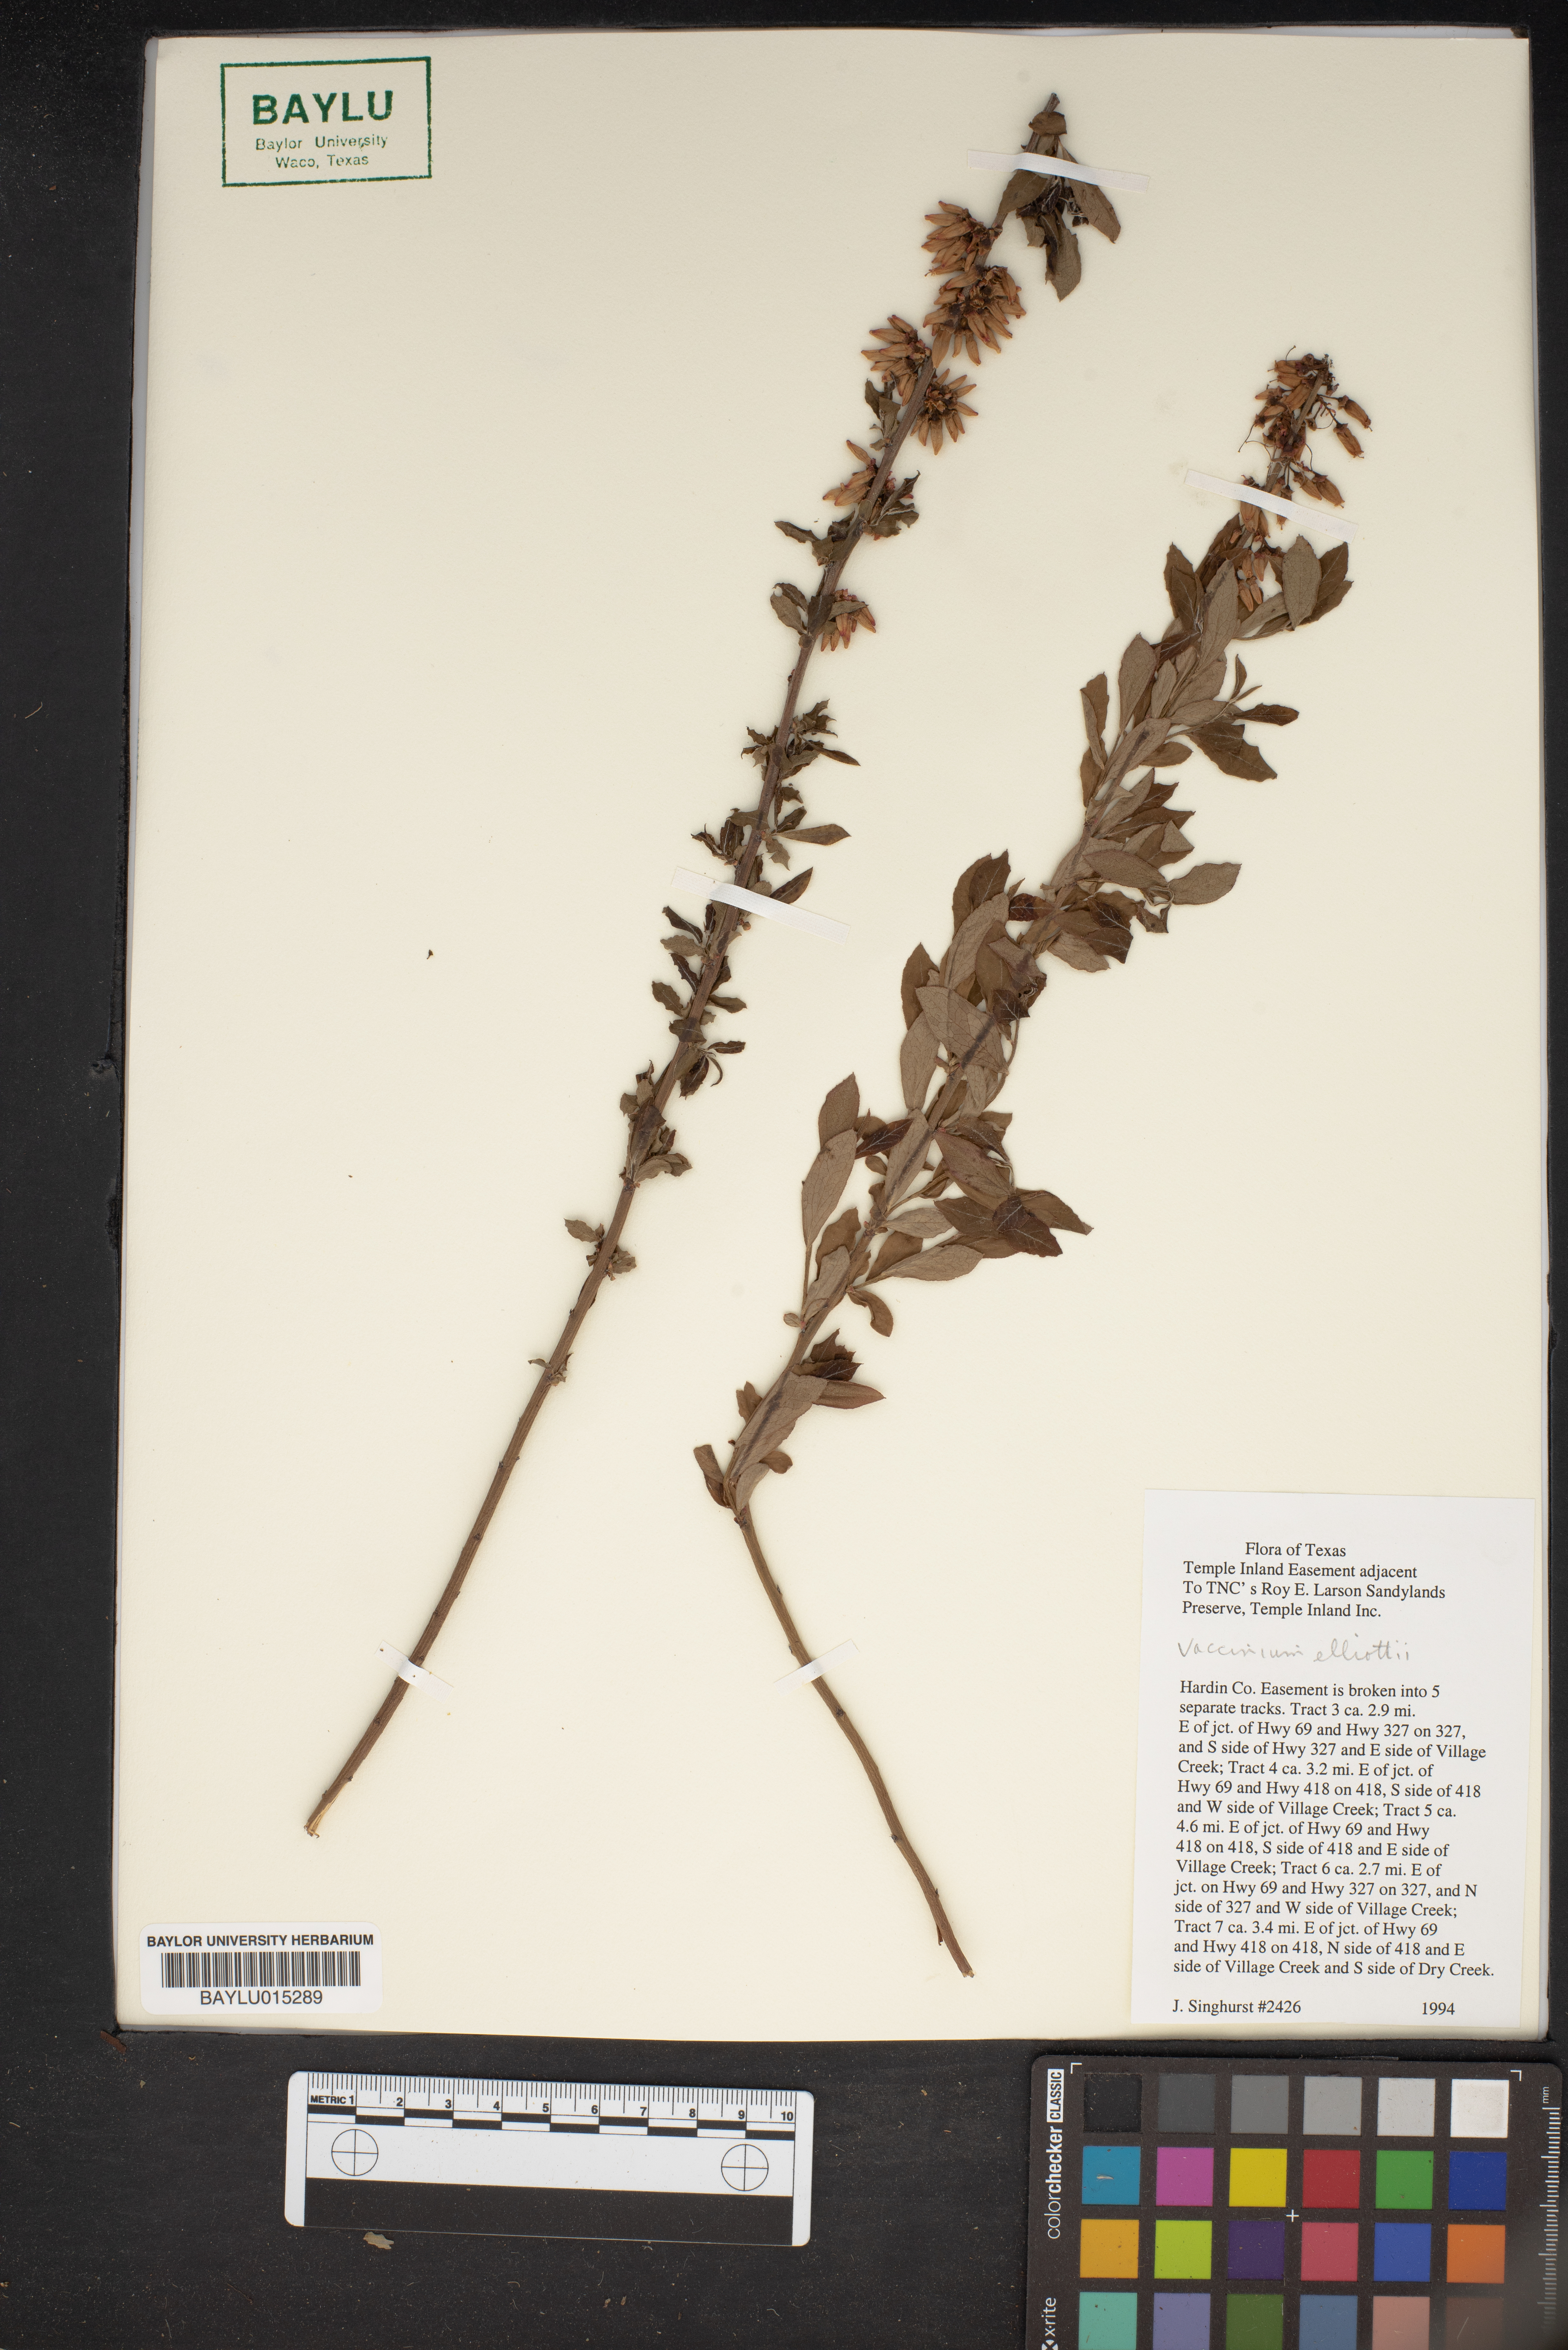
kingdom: Plantae
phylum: Tracheophyta
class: Magnoliopsida
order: Ericales
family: Ericaceae
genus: Vaccinium
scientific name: Vaccinium corymbosum
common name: Blueberry
